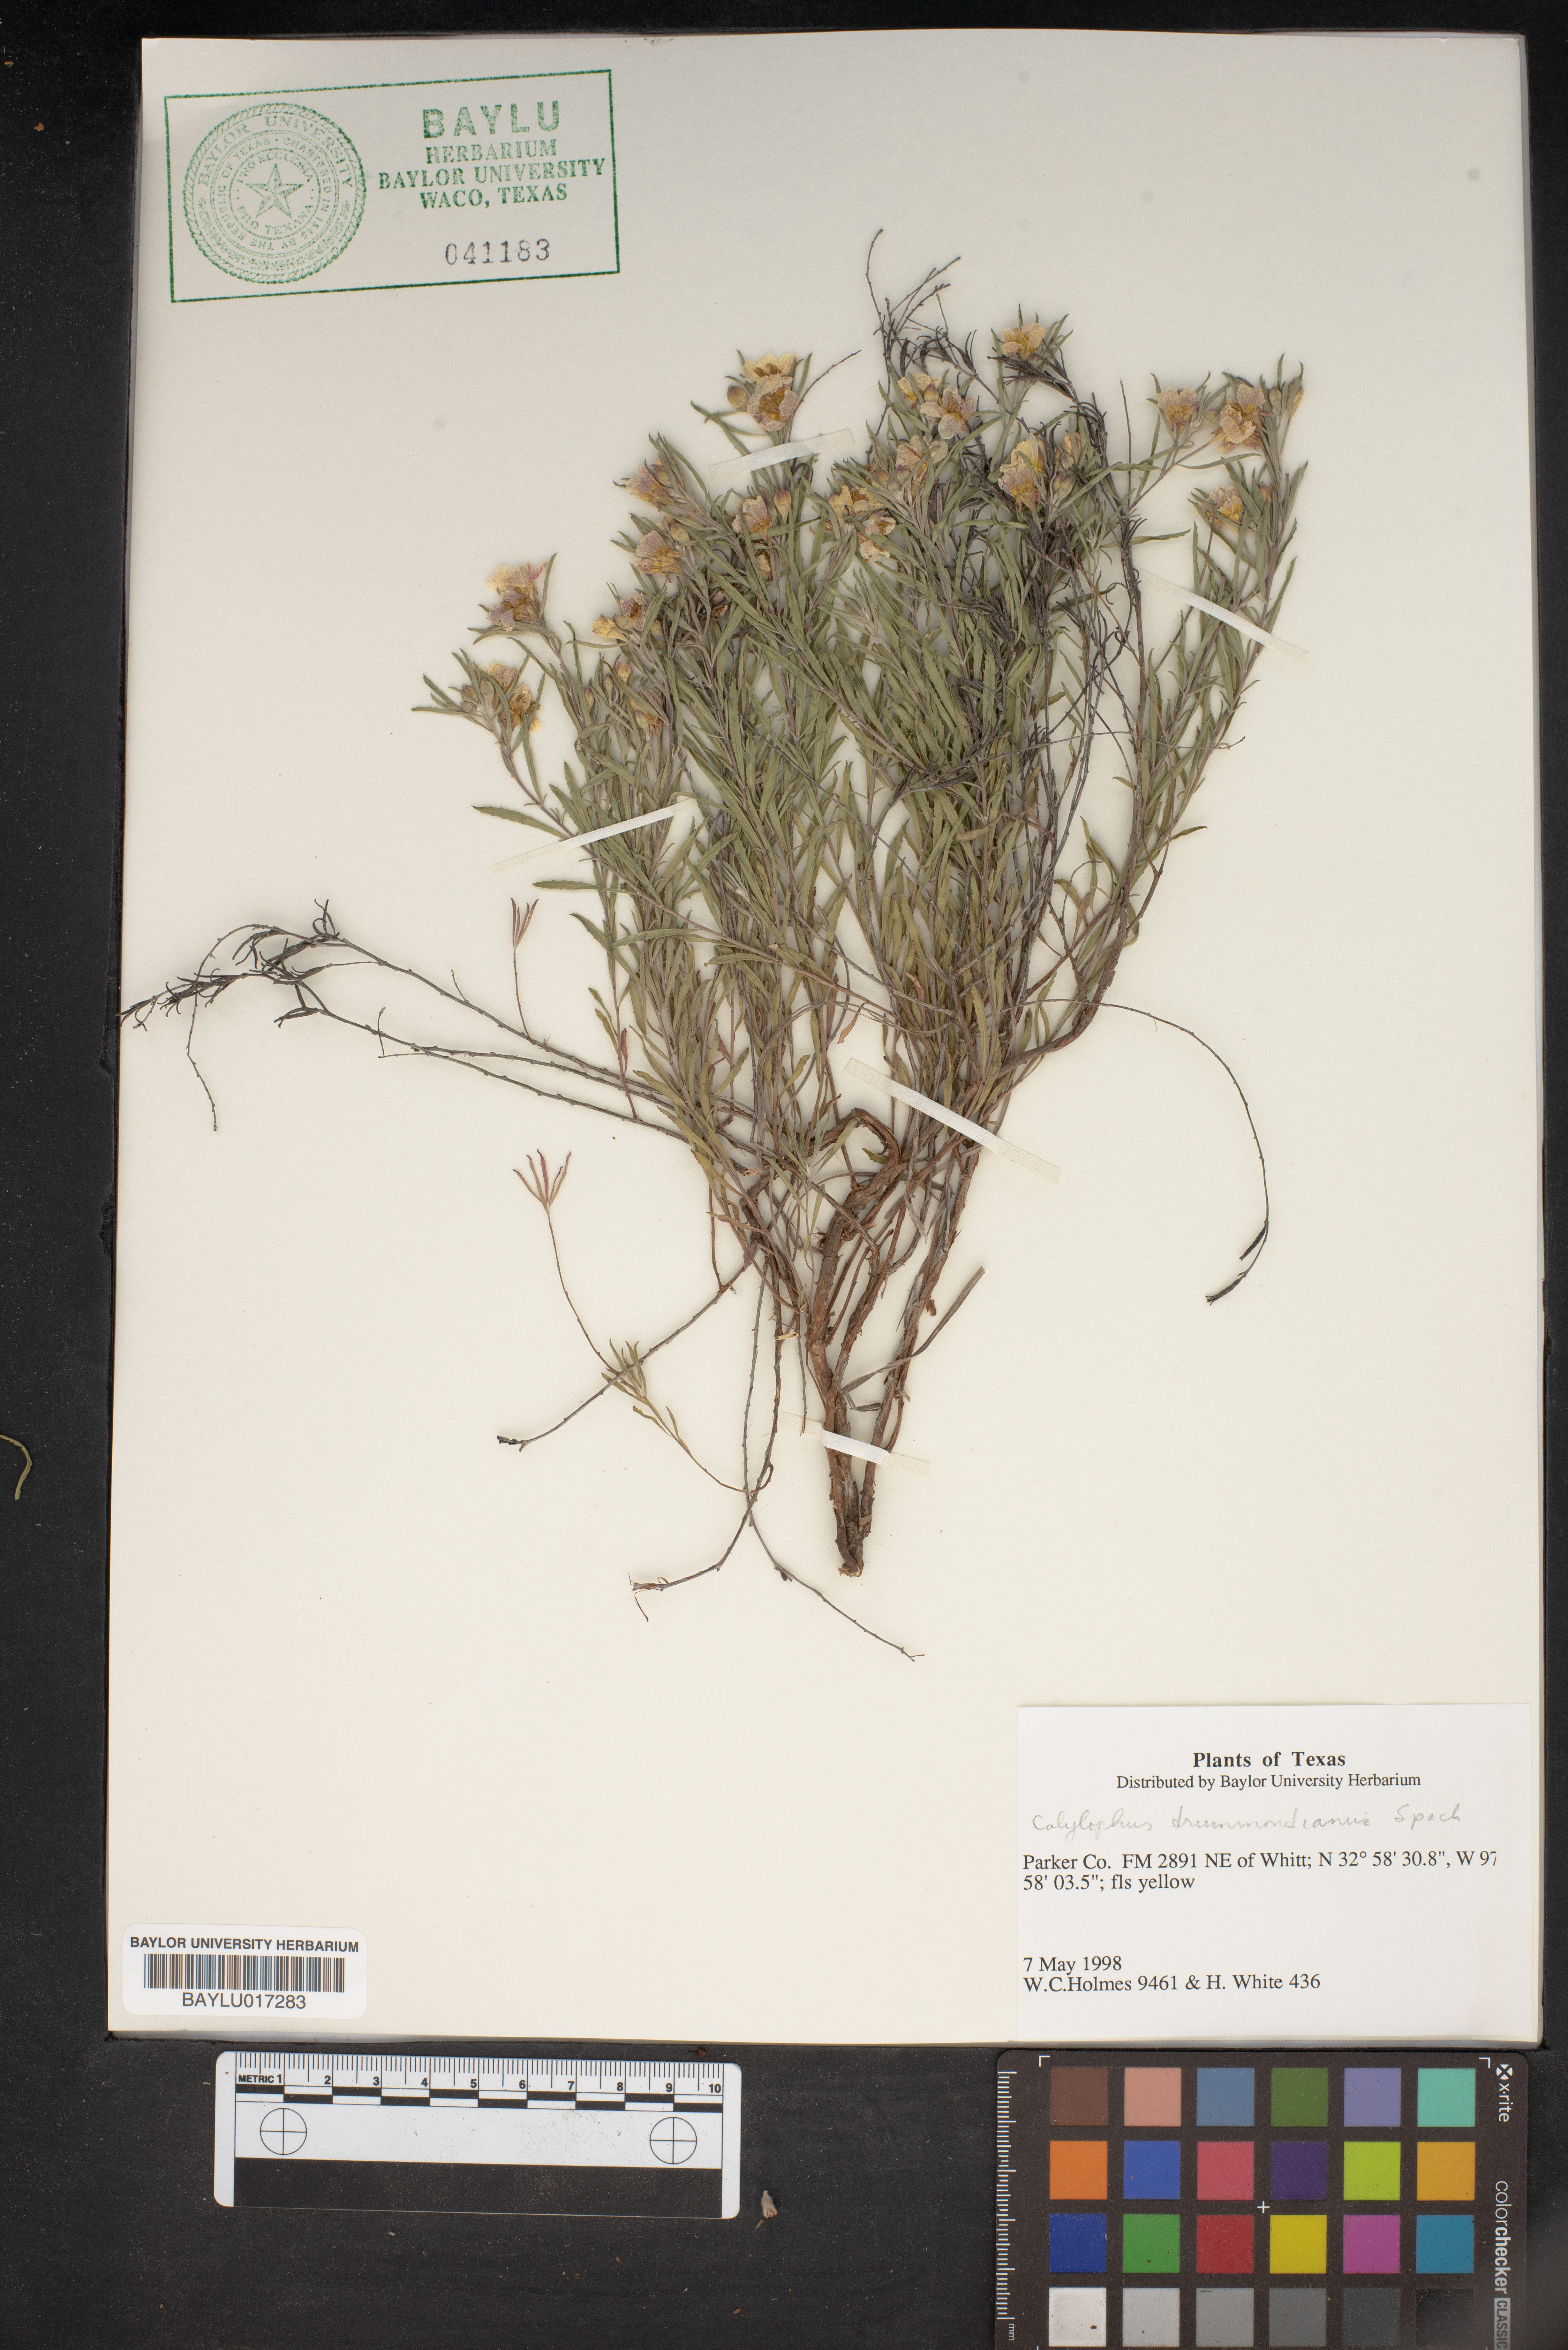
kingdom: Plantae
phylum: Tracheophyta
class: Magnoliopsida
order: Myrtales
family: Onagraceae
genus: Oenothera
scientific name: Oenothera serrulata
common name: Half-shrub calylophus
